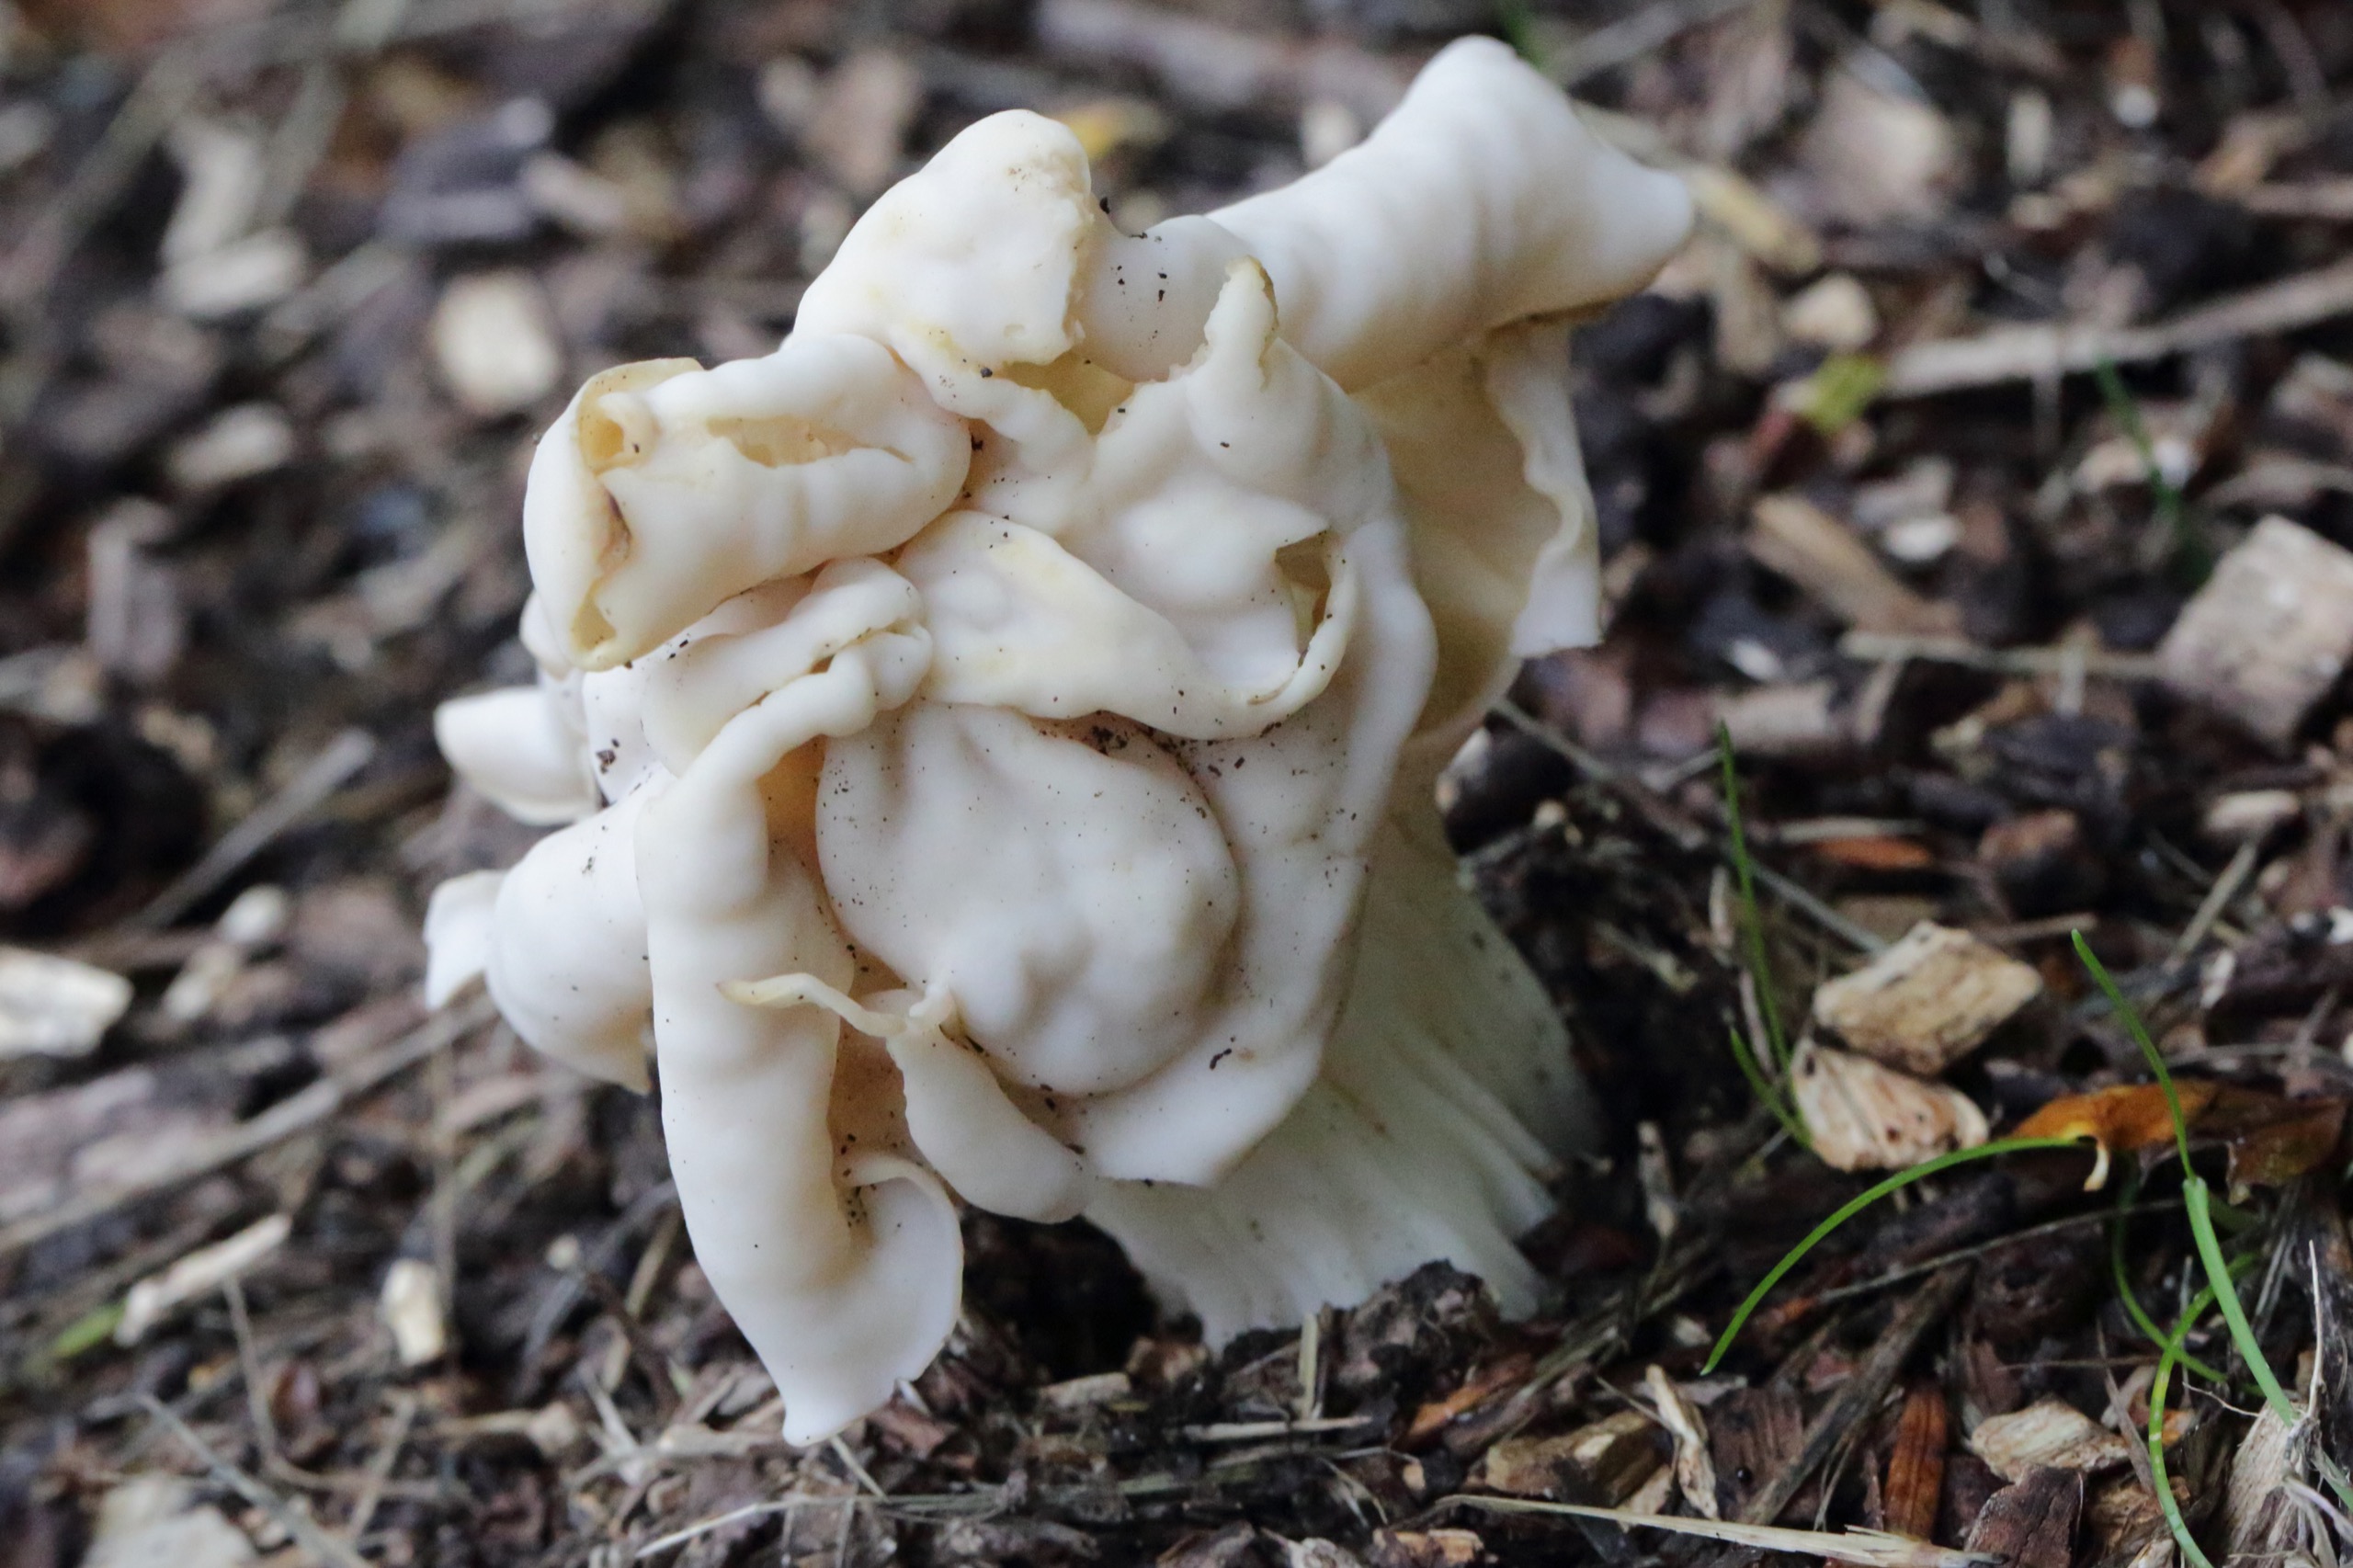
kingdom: Fungi
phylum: Ascomycota
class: Pezizomycetes
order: Pezizales
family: Helvellaceae
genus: Helvella
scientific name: Helvella crispa
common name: Kruset foldhat
